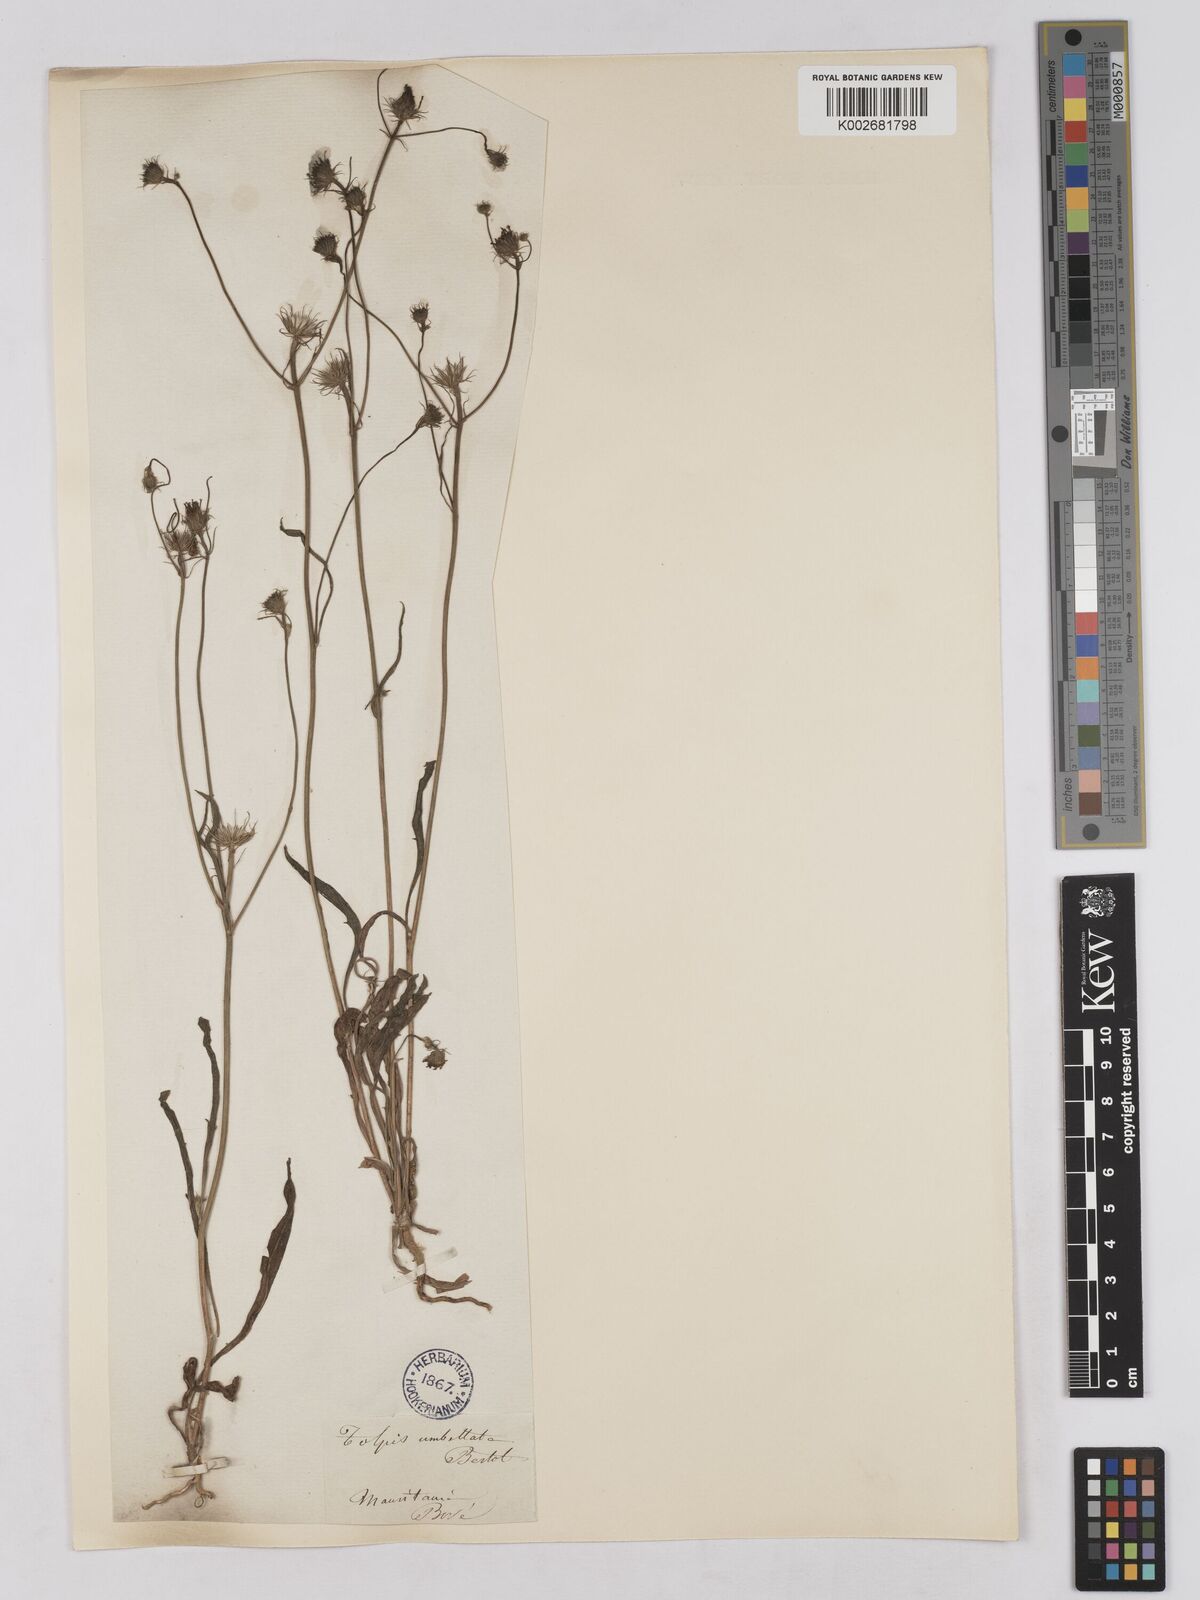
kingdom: Plantae
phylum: Tracheophyta
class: Magnoliopsida
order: Asterales
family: Asteraceae
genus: Tolpis
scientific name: Tolpis umbellata
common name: Yellow hawkweed
